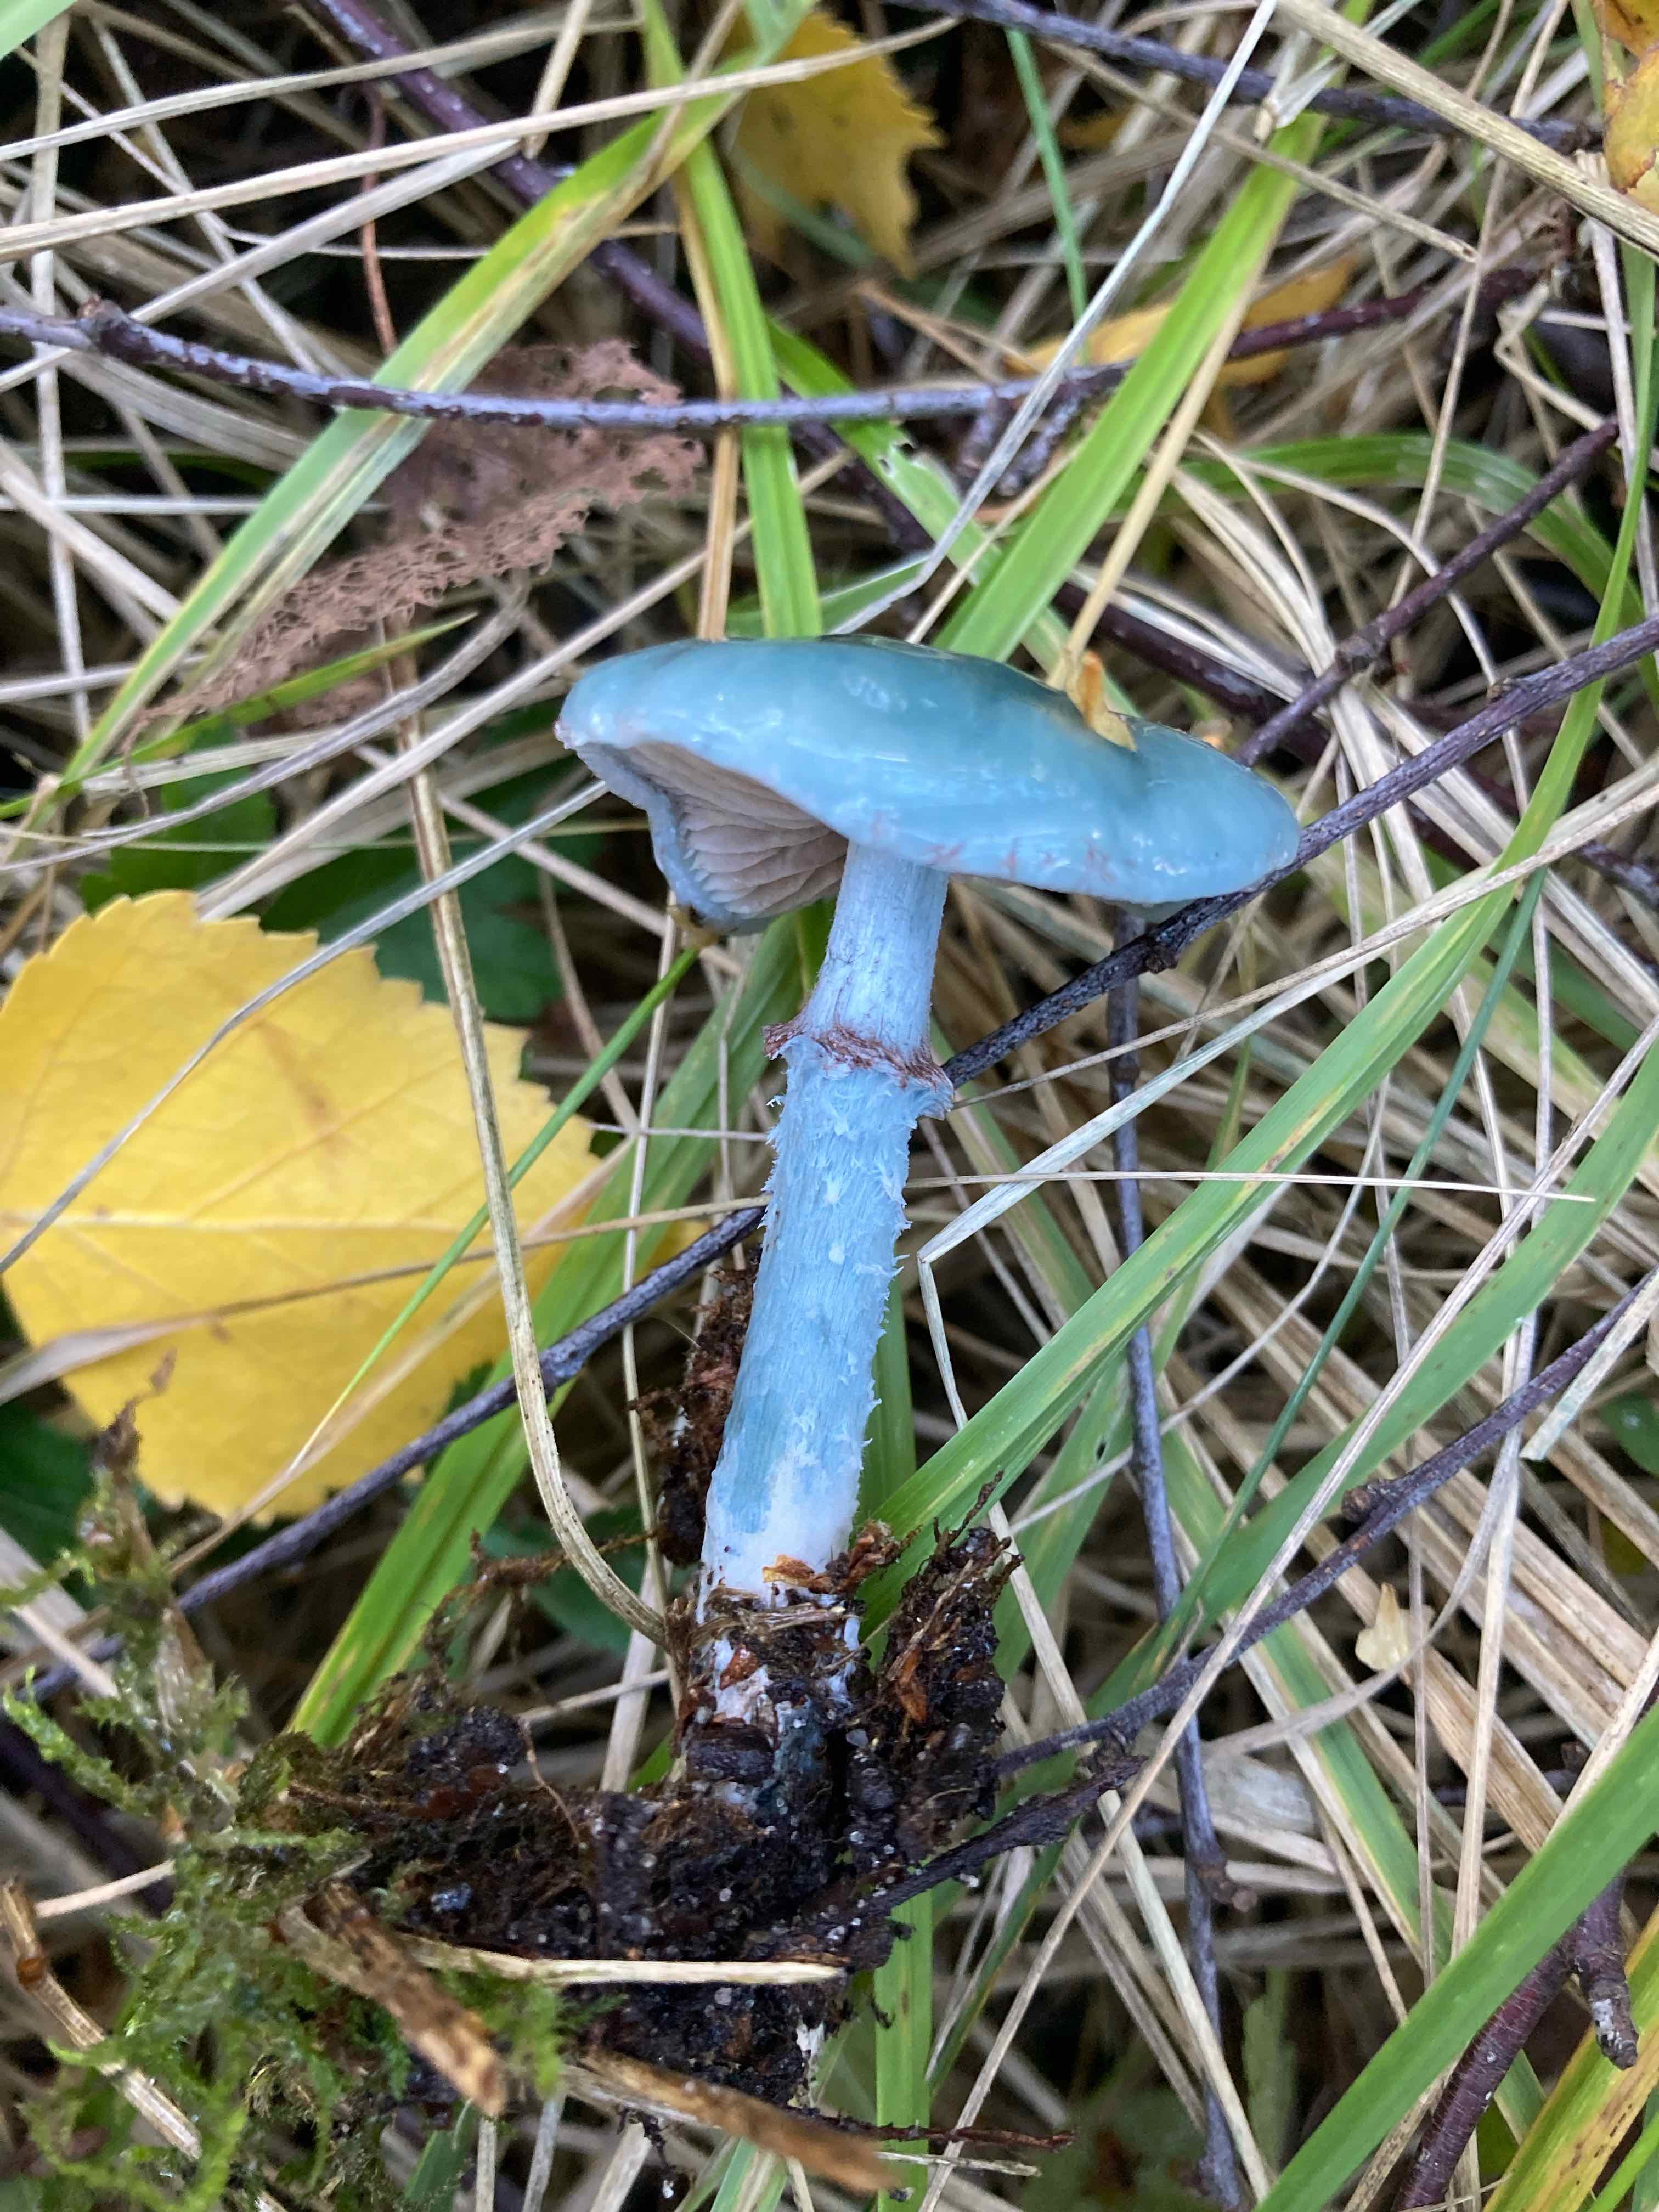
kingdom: Fungi
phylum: Basidiomycota
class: Agaricomycetes
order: Agaricales
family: Strophariaceae
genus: Stropharia
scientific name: Stropharia cyanea
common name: blågrøn bredblad
